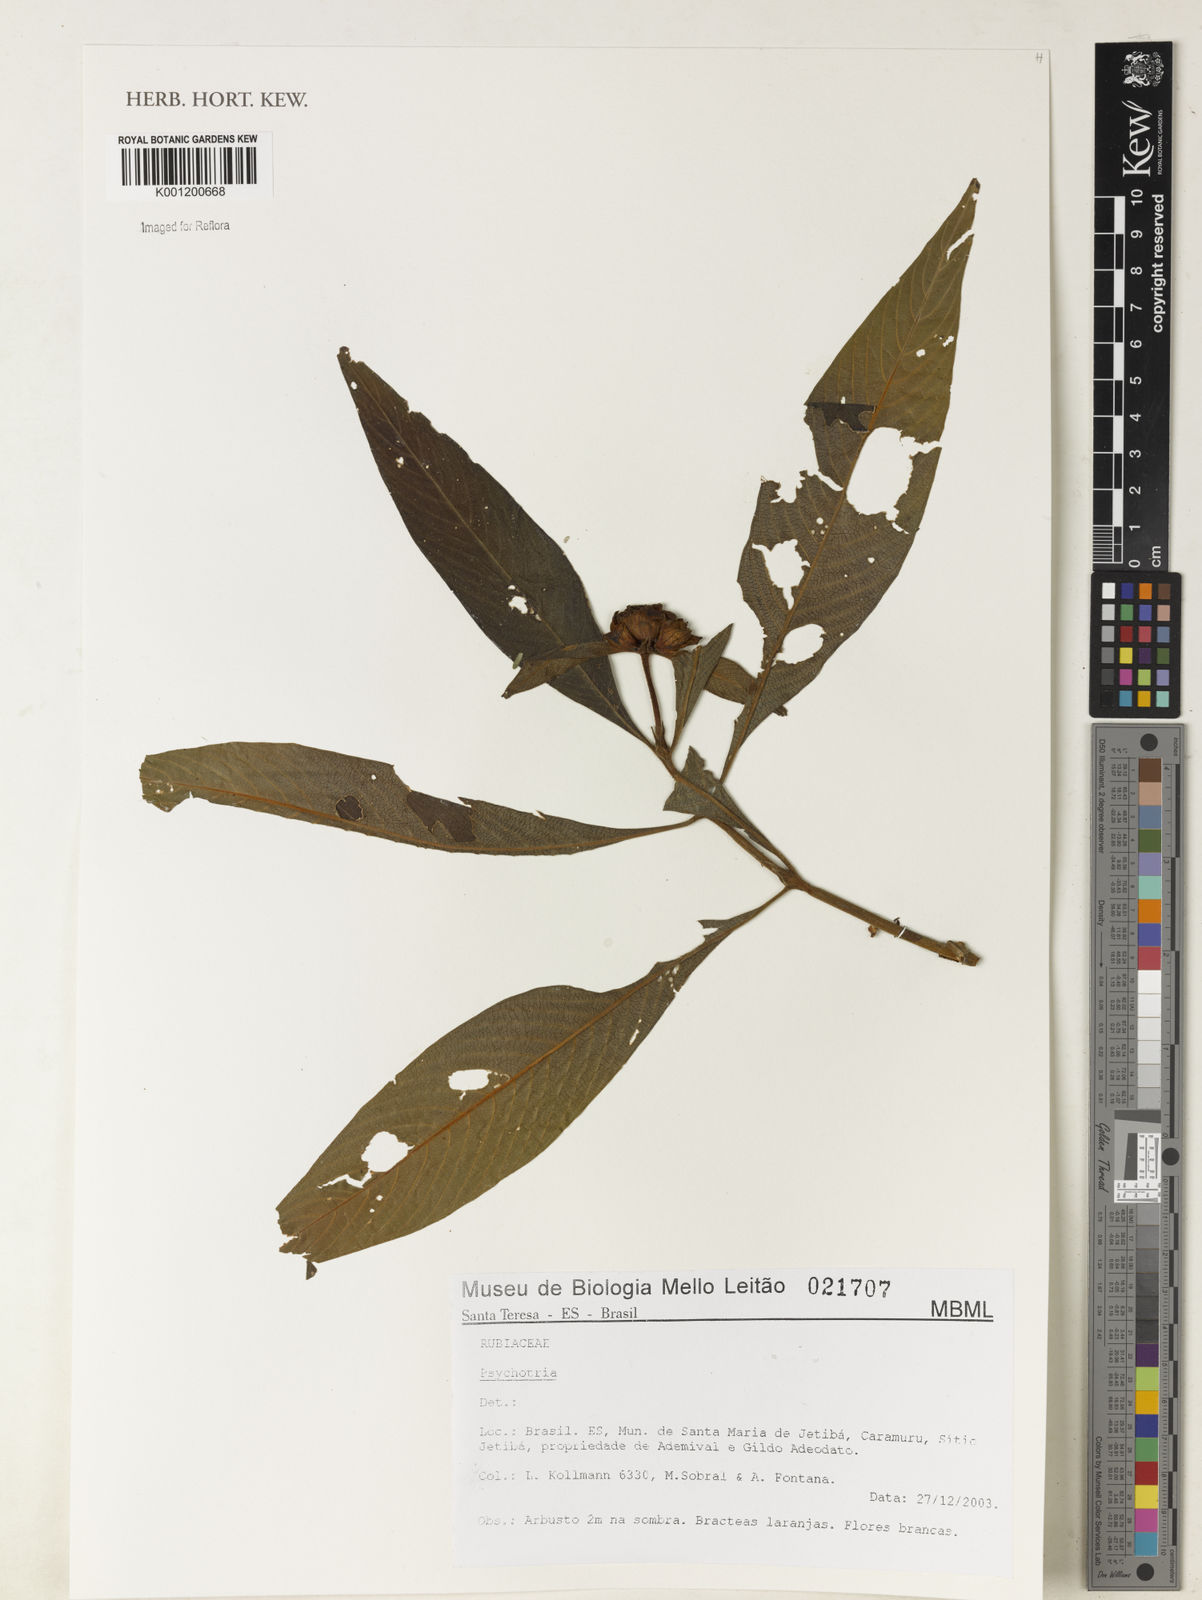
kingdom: Plantae
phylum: Tracheophyta
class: Magnoliopsida
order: Gentianales
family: Rubiaceae
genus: Psychotria
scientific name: Psychotria
